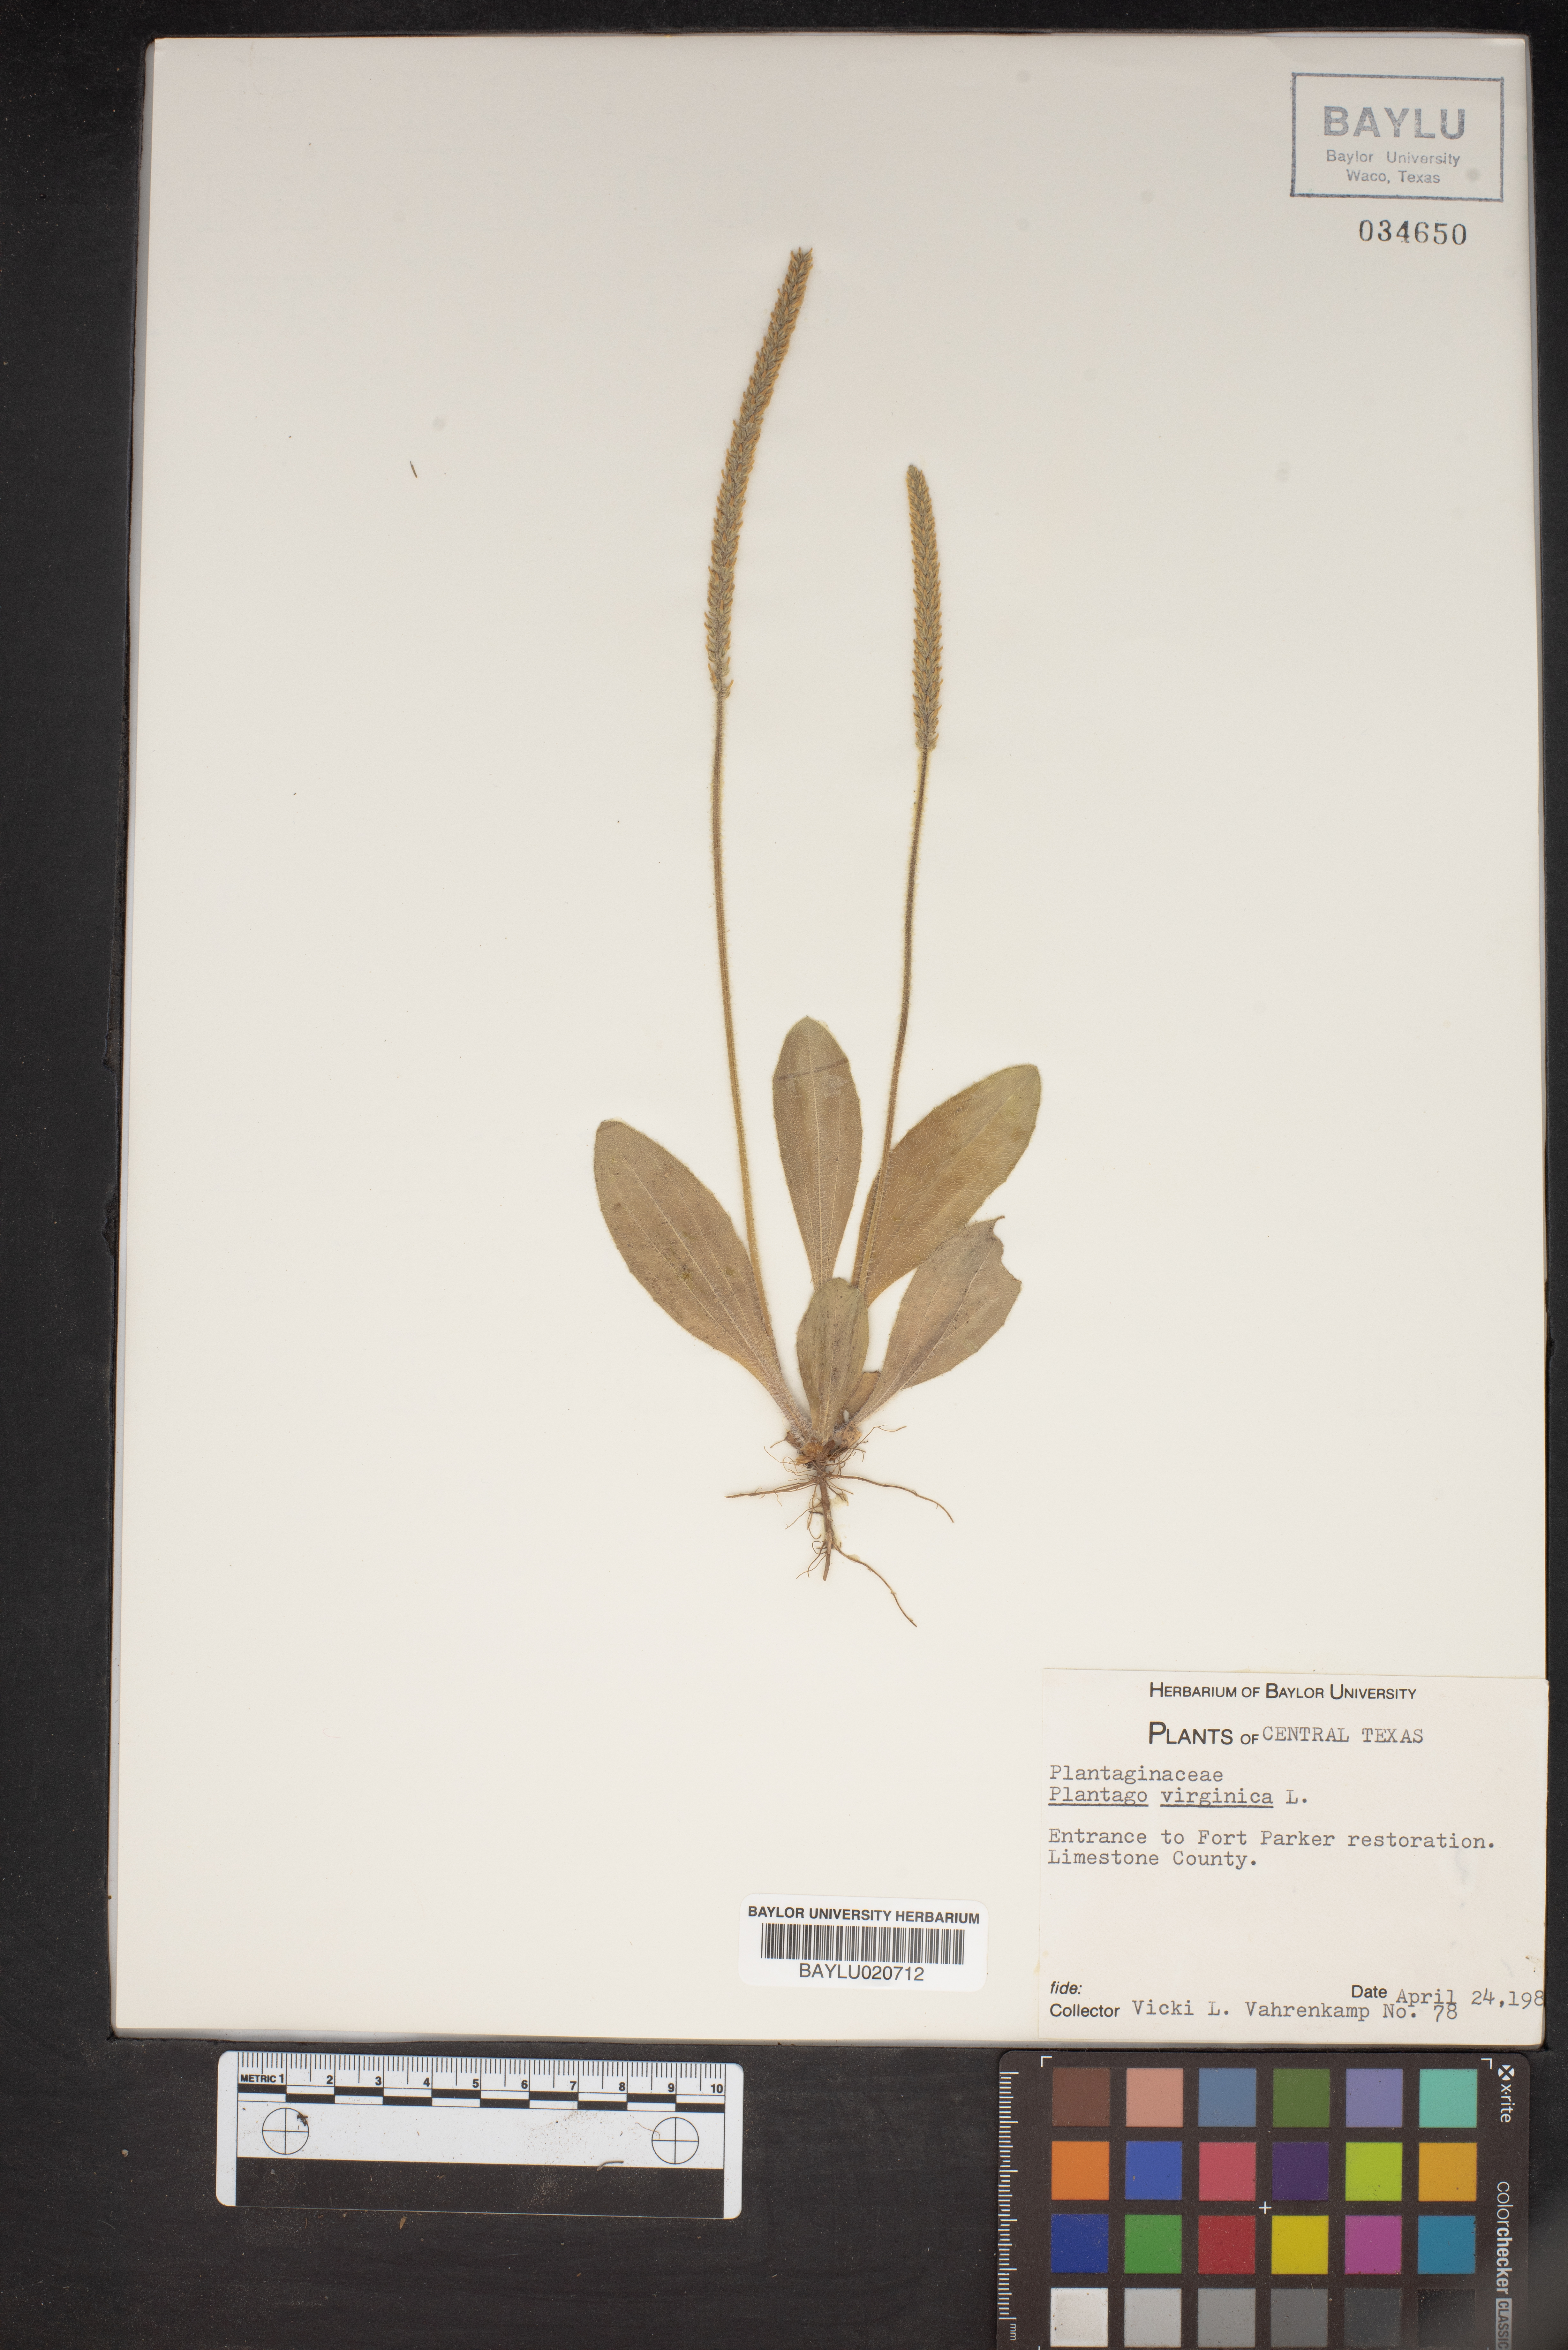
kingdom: Plantae
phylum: Tracheophyta
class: Magnoliopsida
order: Lamiales
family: Plantaginaceae
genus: Plantago
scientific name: Plantago virginica
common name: Hoary plantain
